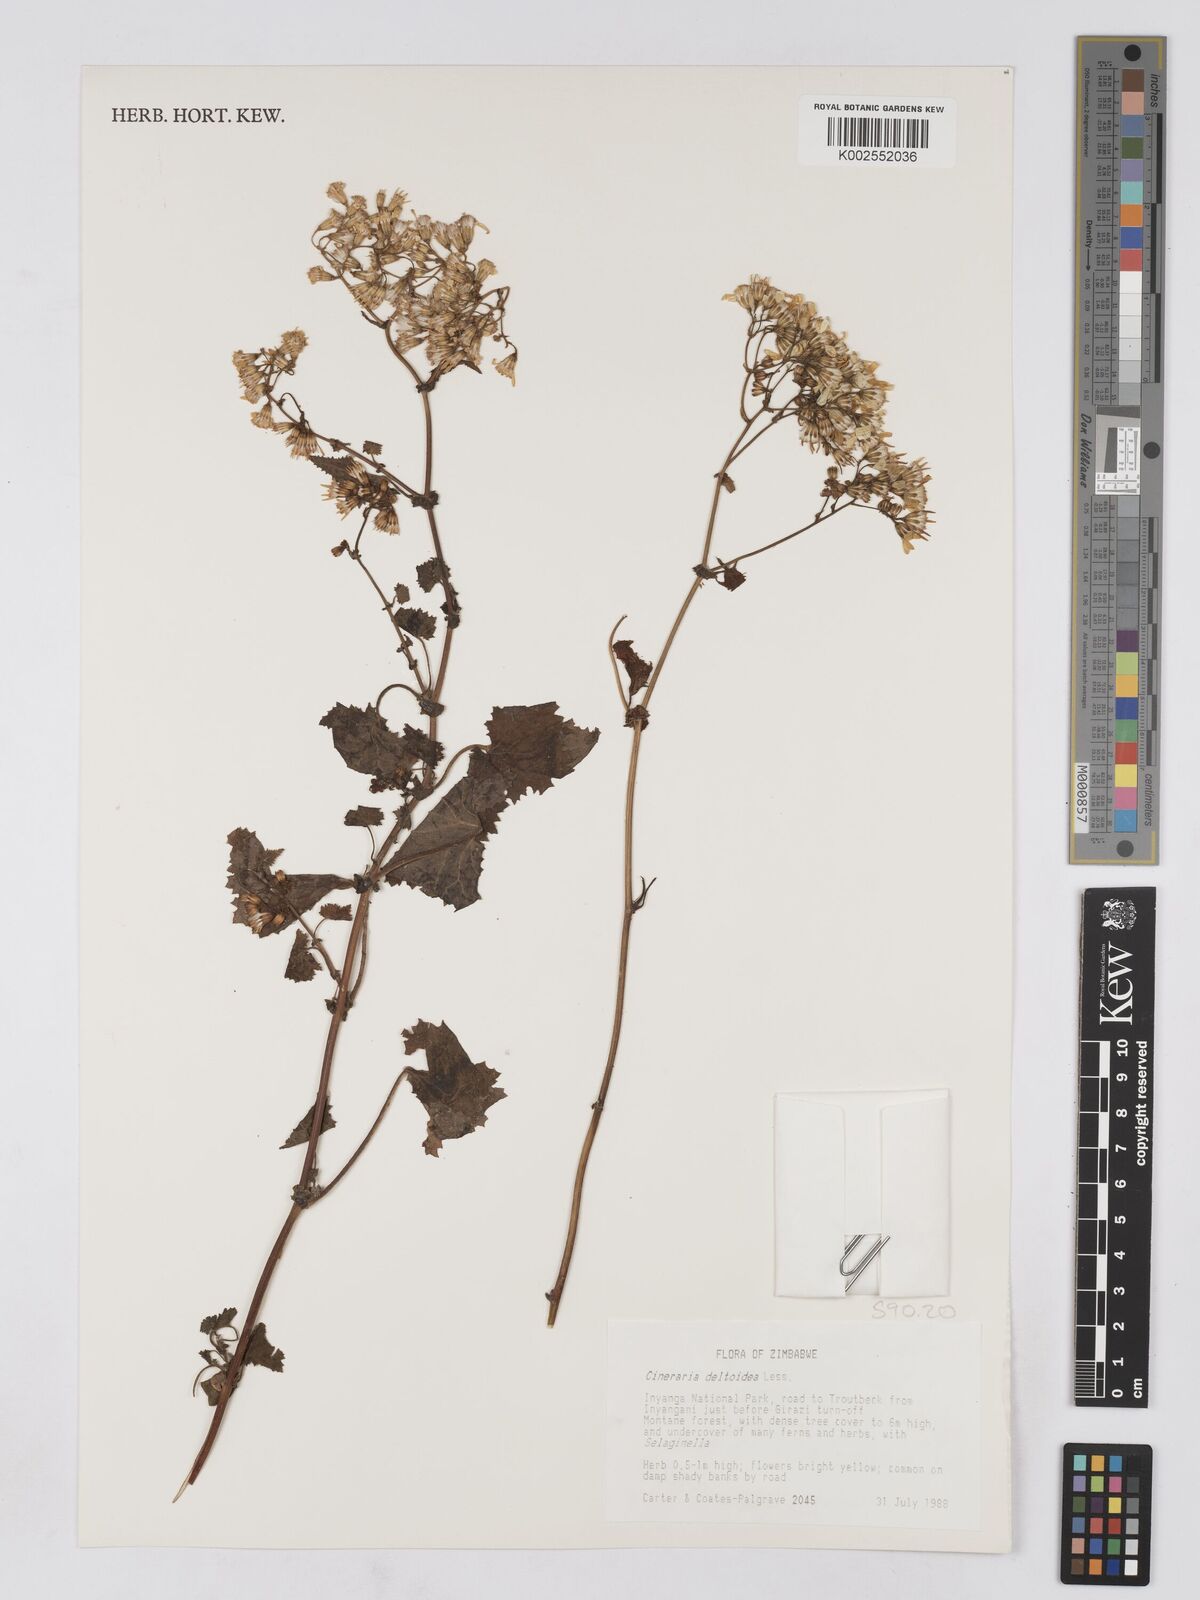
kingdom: Plantae
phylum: Tracheophyta
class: Magnoliopsida
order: Asterales
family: Asteraceae
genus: Cineraria
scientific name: Cineraria deltoidea
